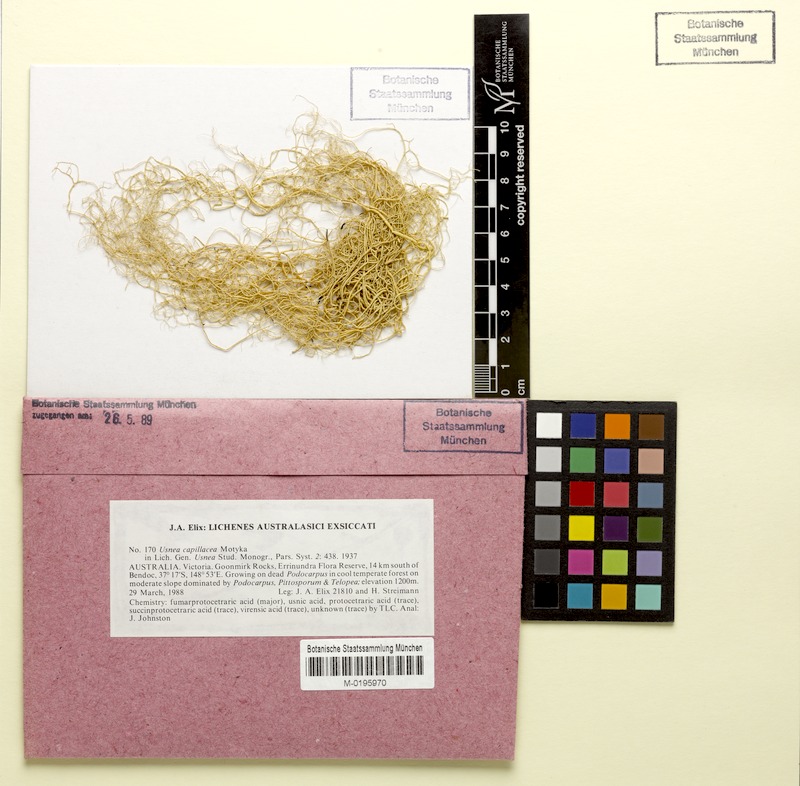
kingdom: Fungi
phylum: Ascomycota
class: Lecanoromycetes
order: Lecanorales
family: Parmeliaceae
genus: Usnea
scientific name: Usnea capillacea
